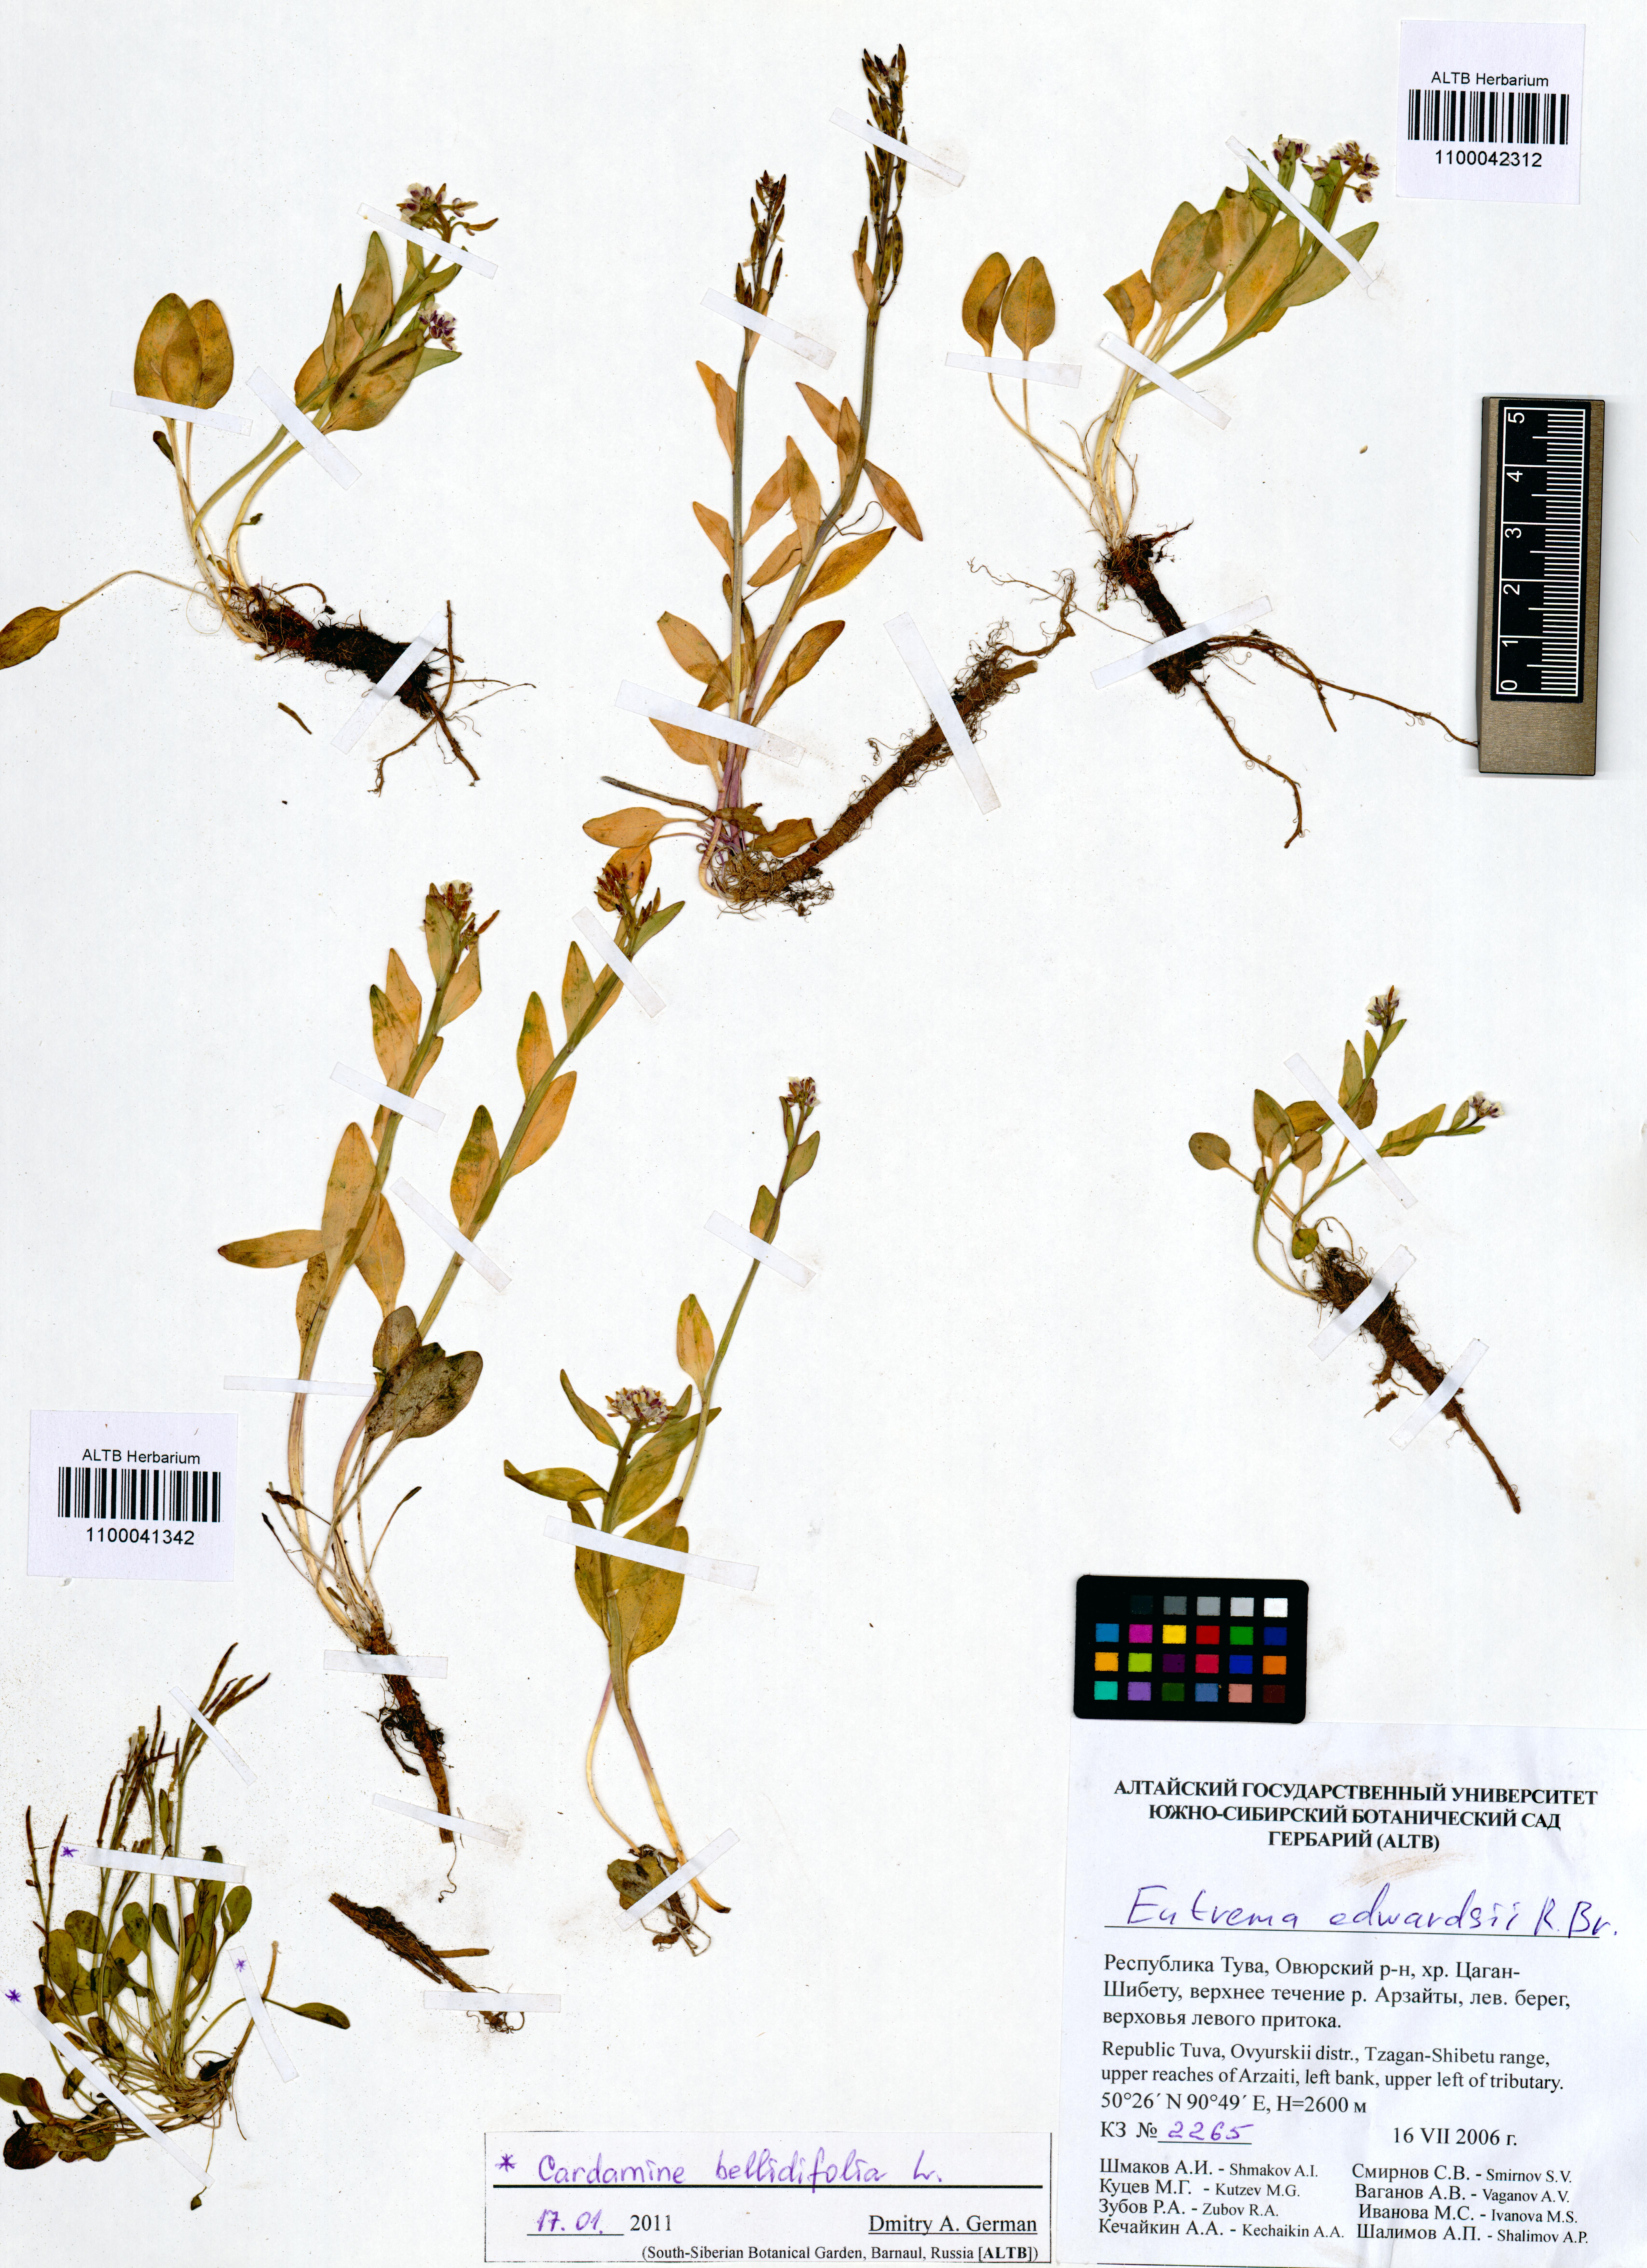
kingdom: Plantae
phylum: Tracheophyta
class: Magnoliopsida
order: Brassicales
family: Brassicaceae
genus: Cardamine
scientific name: Cardamine bellidifolia
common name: Alpine bittercress
